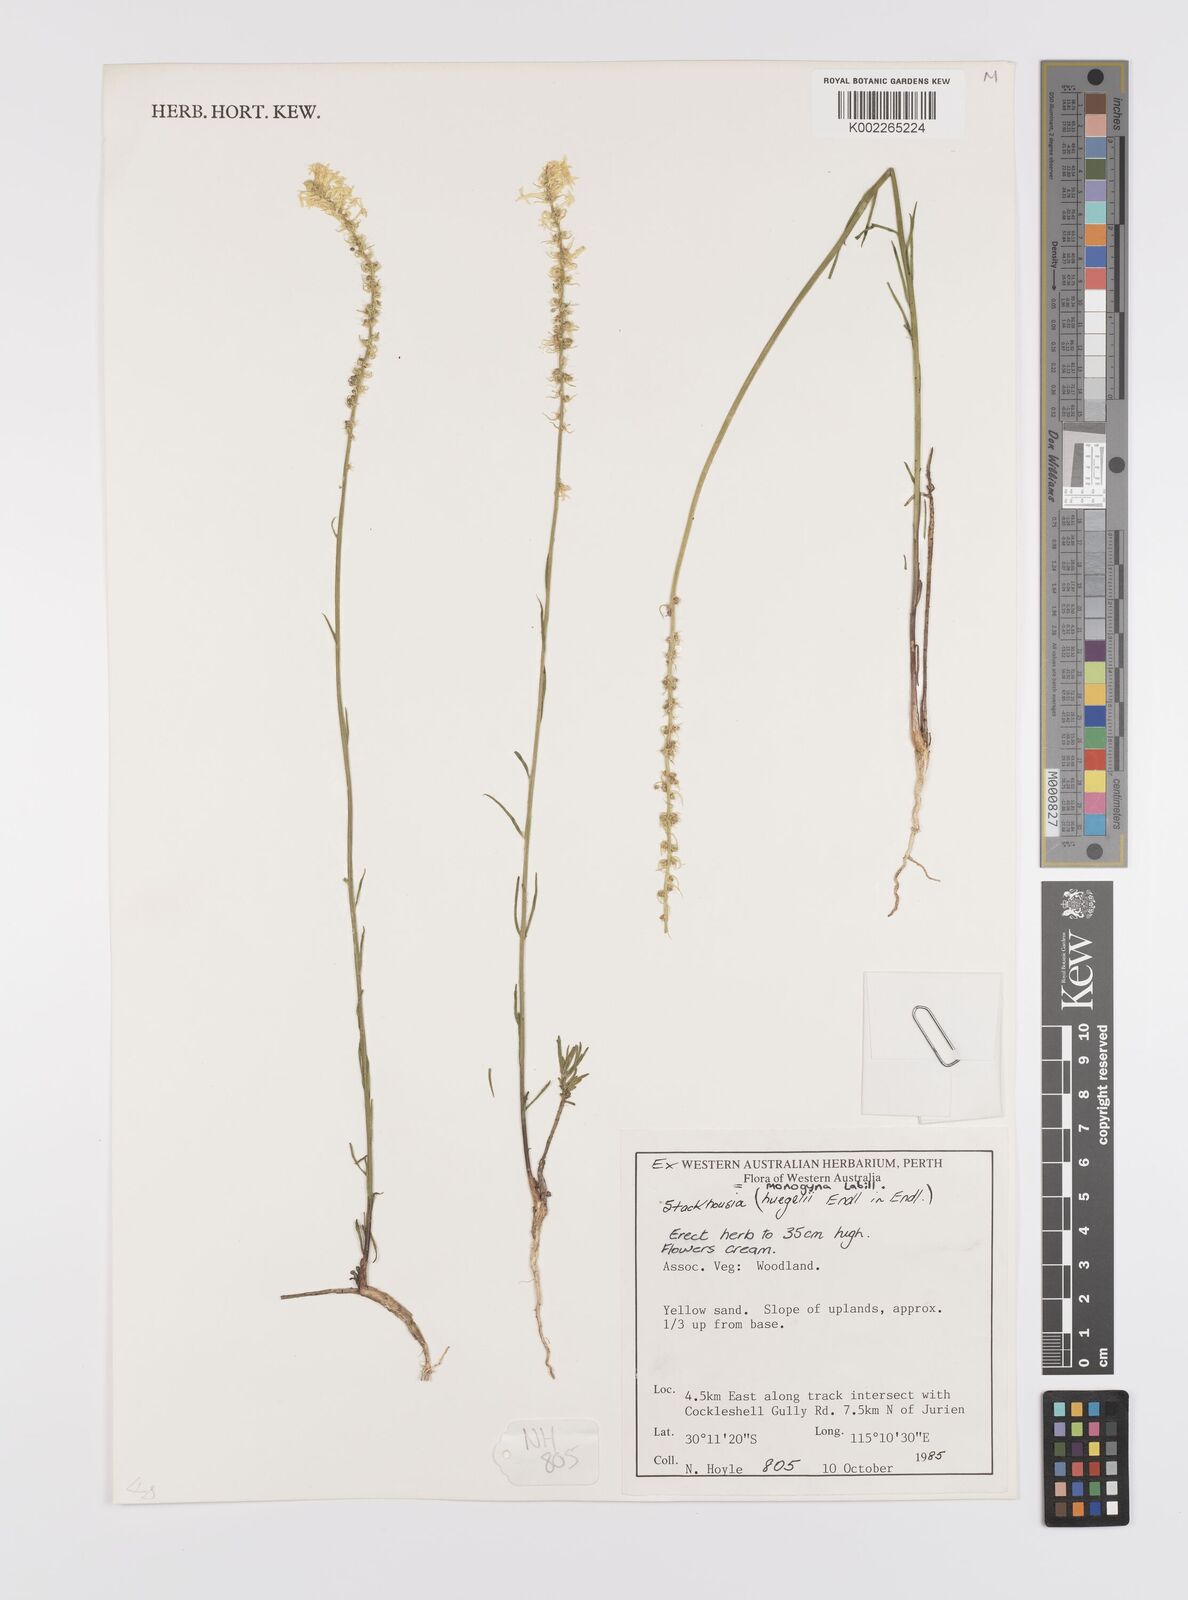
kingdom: Plantae
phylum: Tracheophyta
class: Magnoliopsida
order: Celastrales
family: Celastraceae
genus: Stackhousia
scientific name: Stackhousia monogyna
